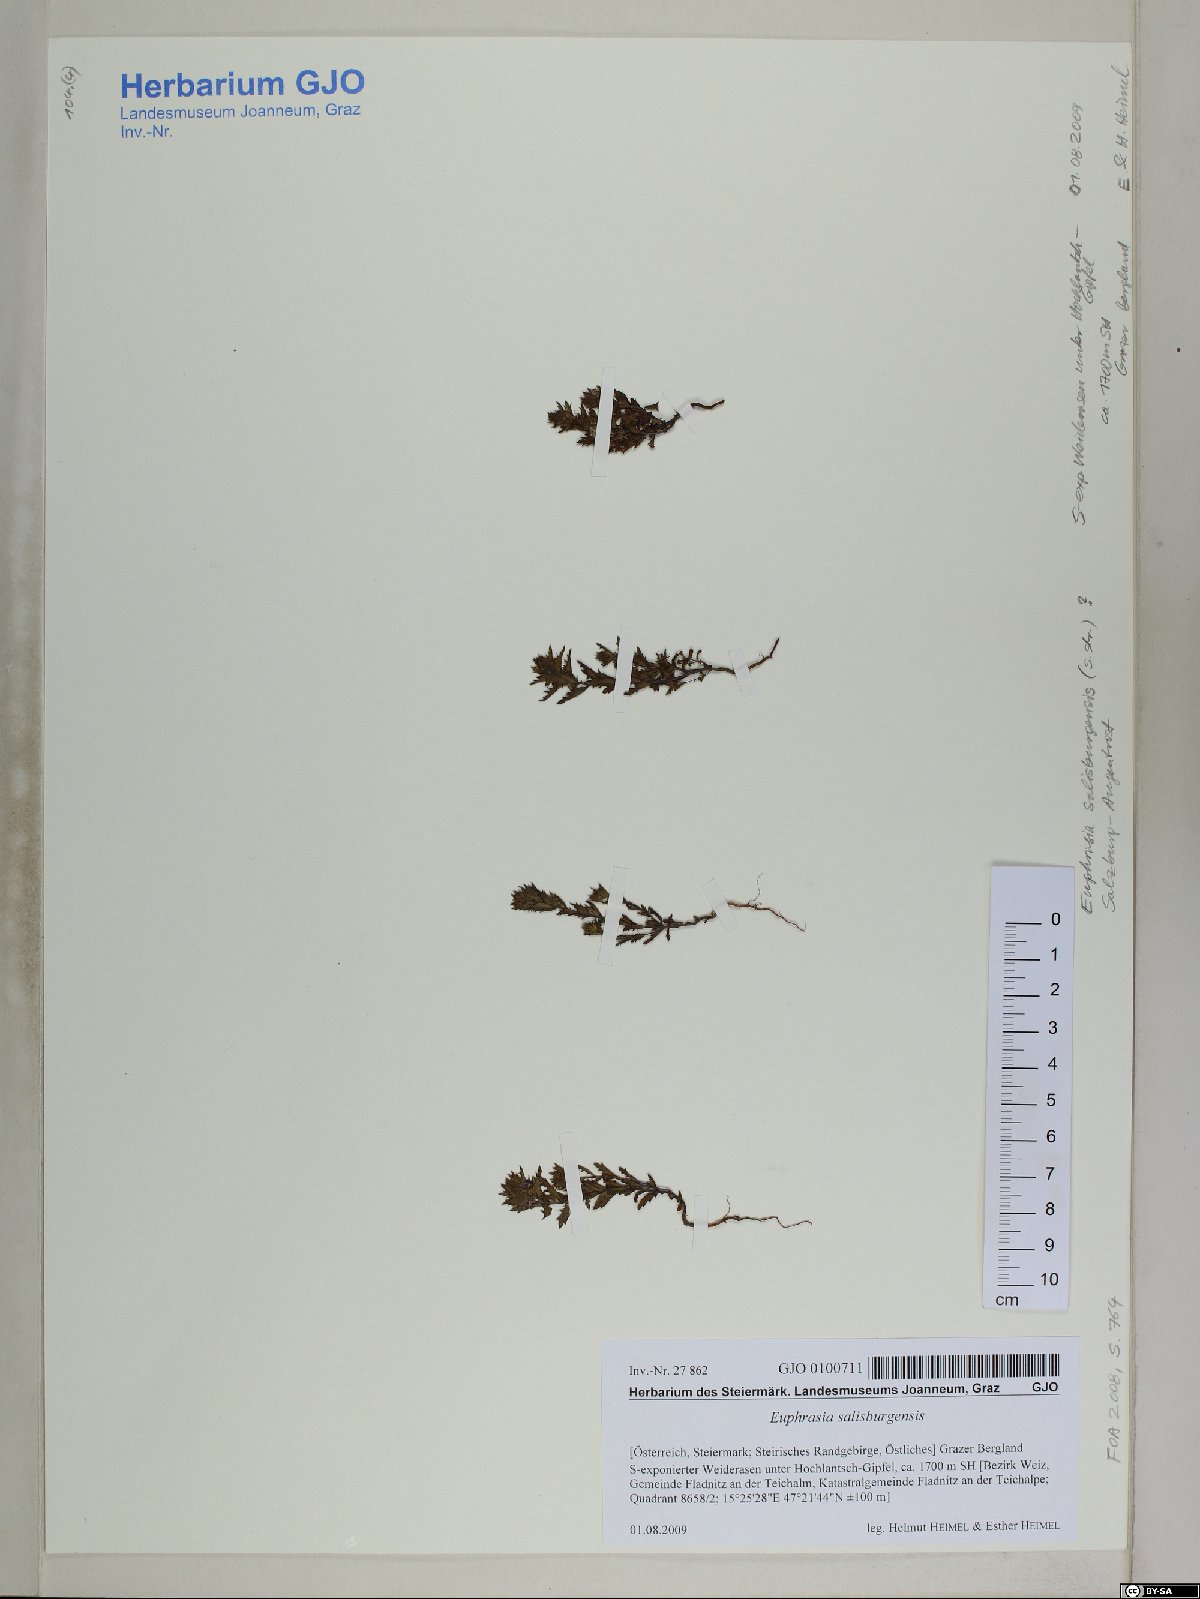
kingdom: Plantae
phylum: Tracheophyta
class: Magnoliopsida
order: Lamiales
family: Orobanchaceae
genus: Euphrasia
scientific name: Euphrasia salisburgensis
